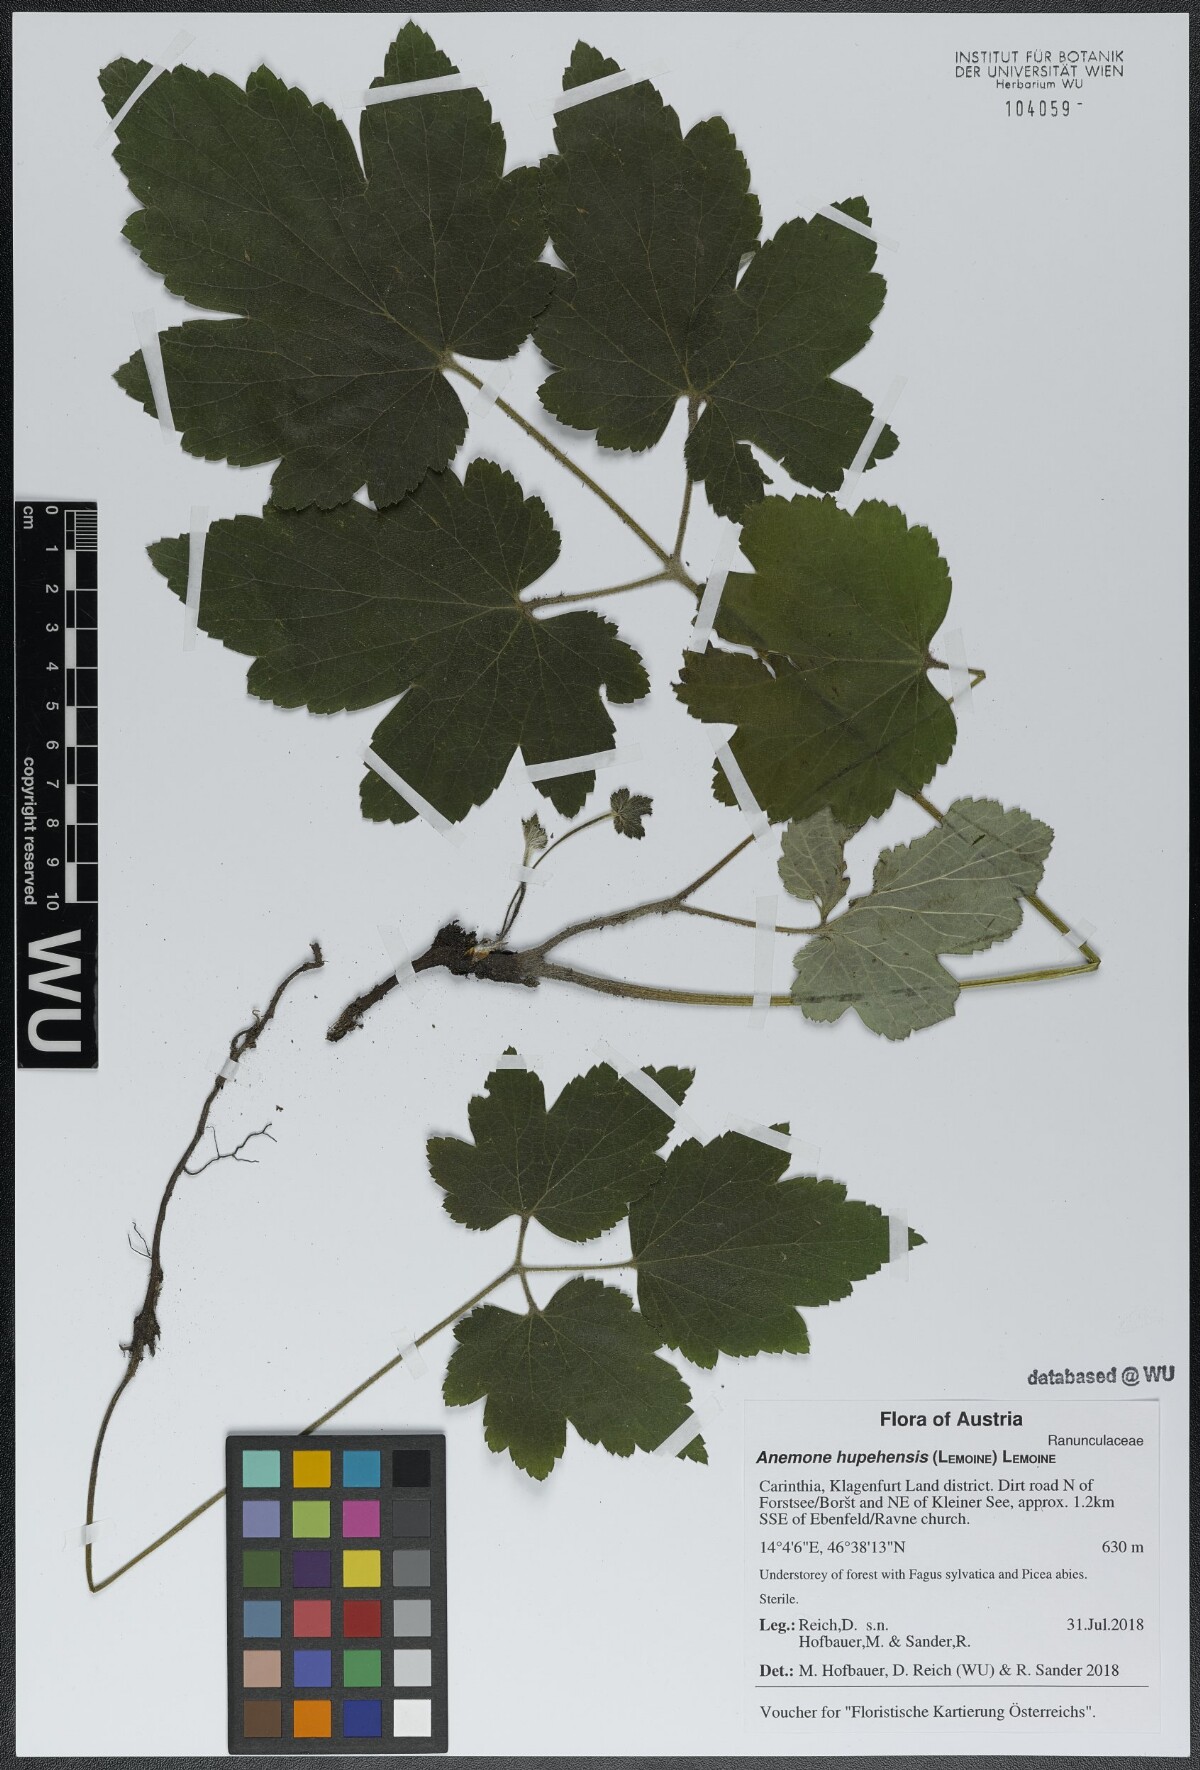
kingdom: Plantae
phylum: Tracheophyta
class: Magnoliopsida
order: Ranunculales
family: Ranunculaceae
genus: Eriocapitella
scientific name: Eriocapitella hupehensis
